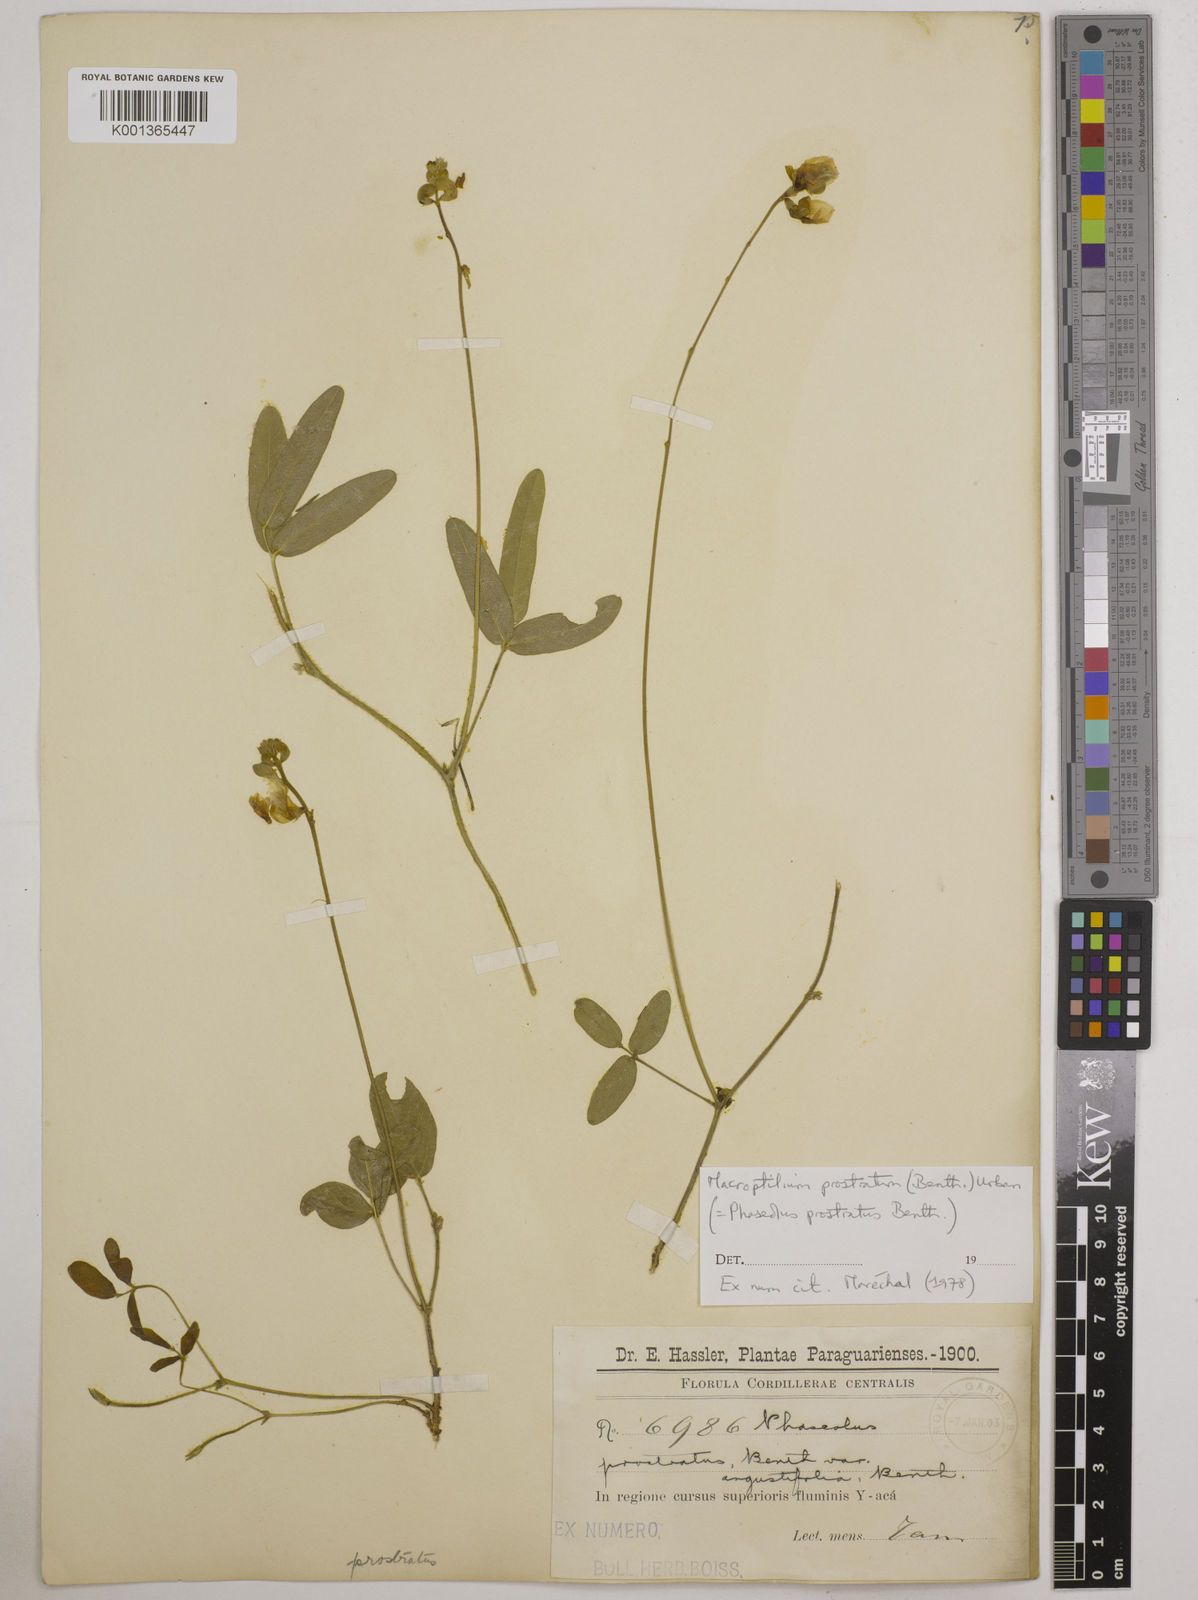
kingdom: Plantae
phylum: Tracheophyta
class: Magnoliopsida
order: Fabales
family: Fabaceae
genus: Macroptilium
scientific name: Macroptilium prostratum
